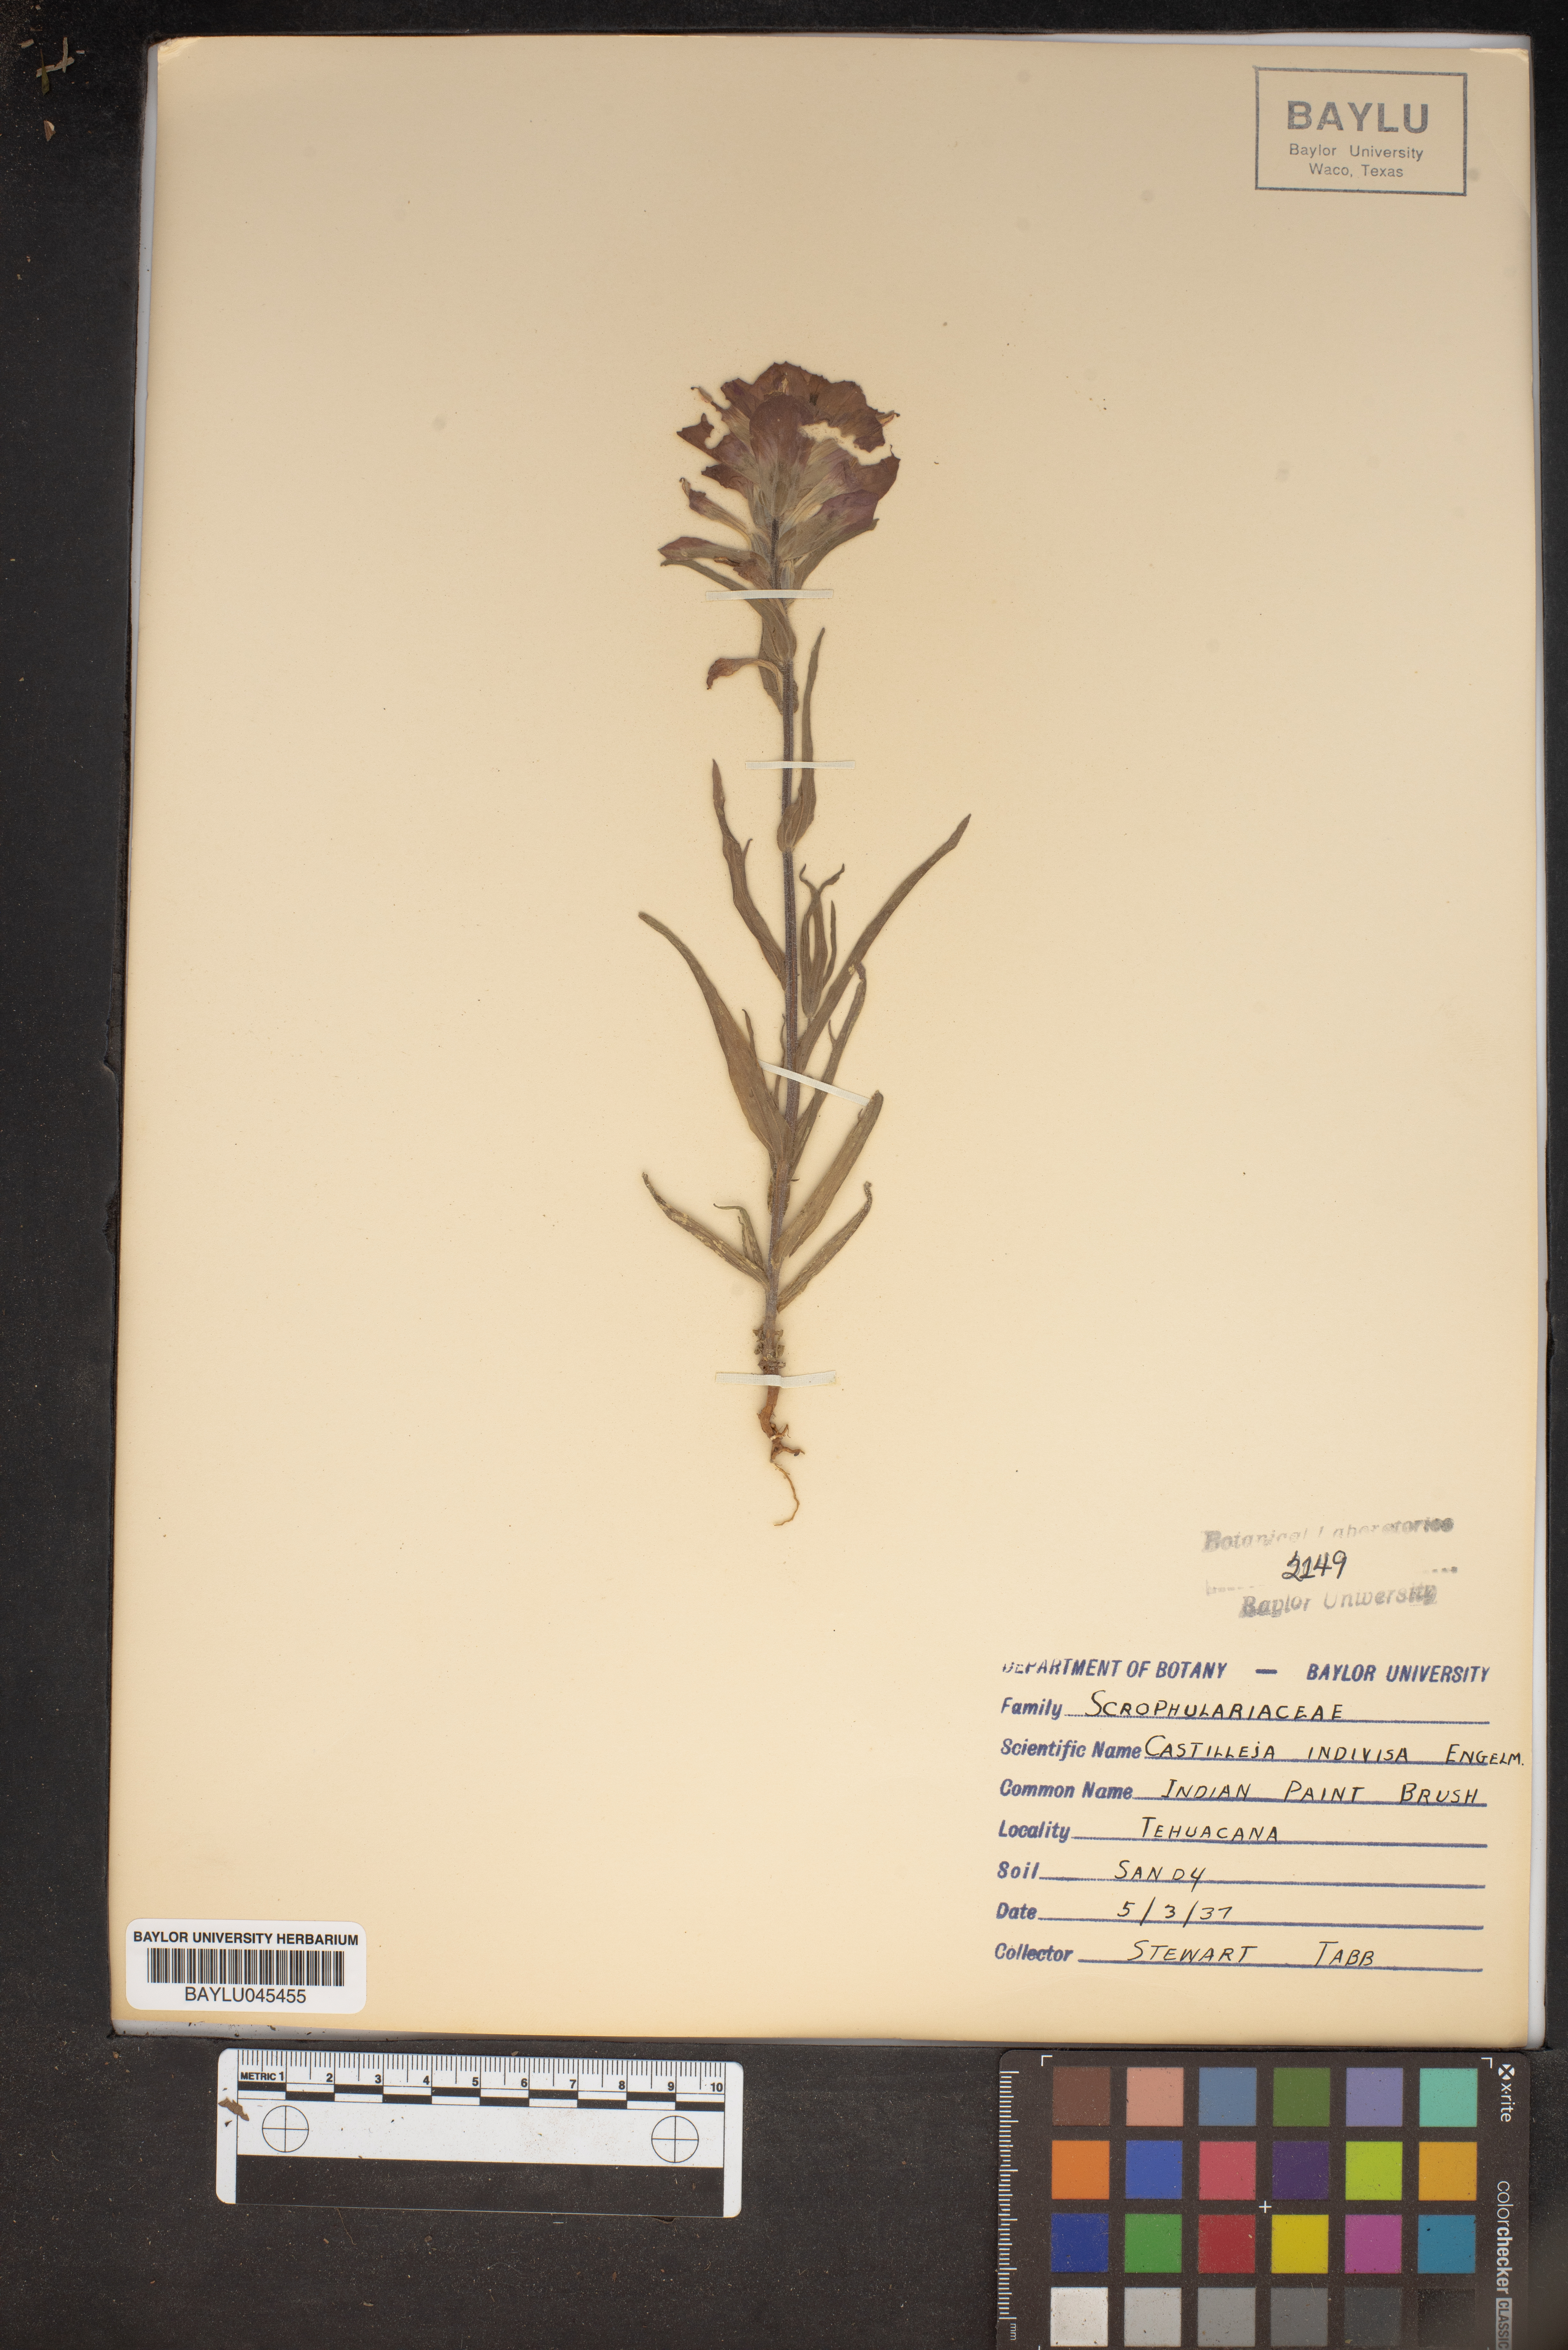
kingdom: Plantae
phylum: Tracheophyta
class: Magnoliopsida
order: Lamiales
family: Orobanchaceae
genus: Castilleja
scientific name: Castilleja indivisa
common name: Texas paintbrush
